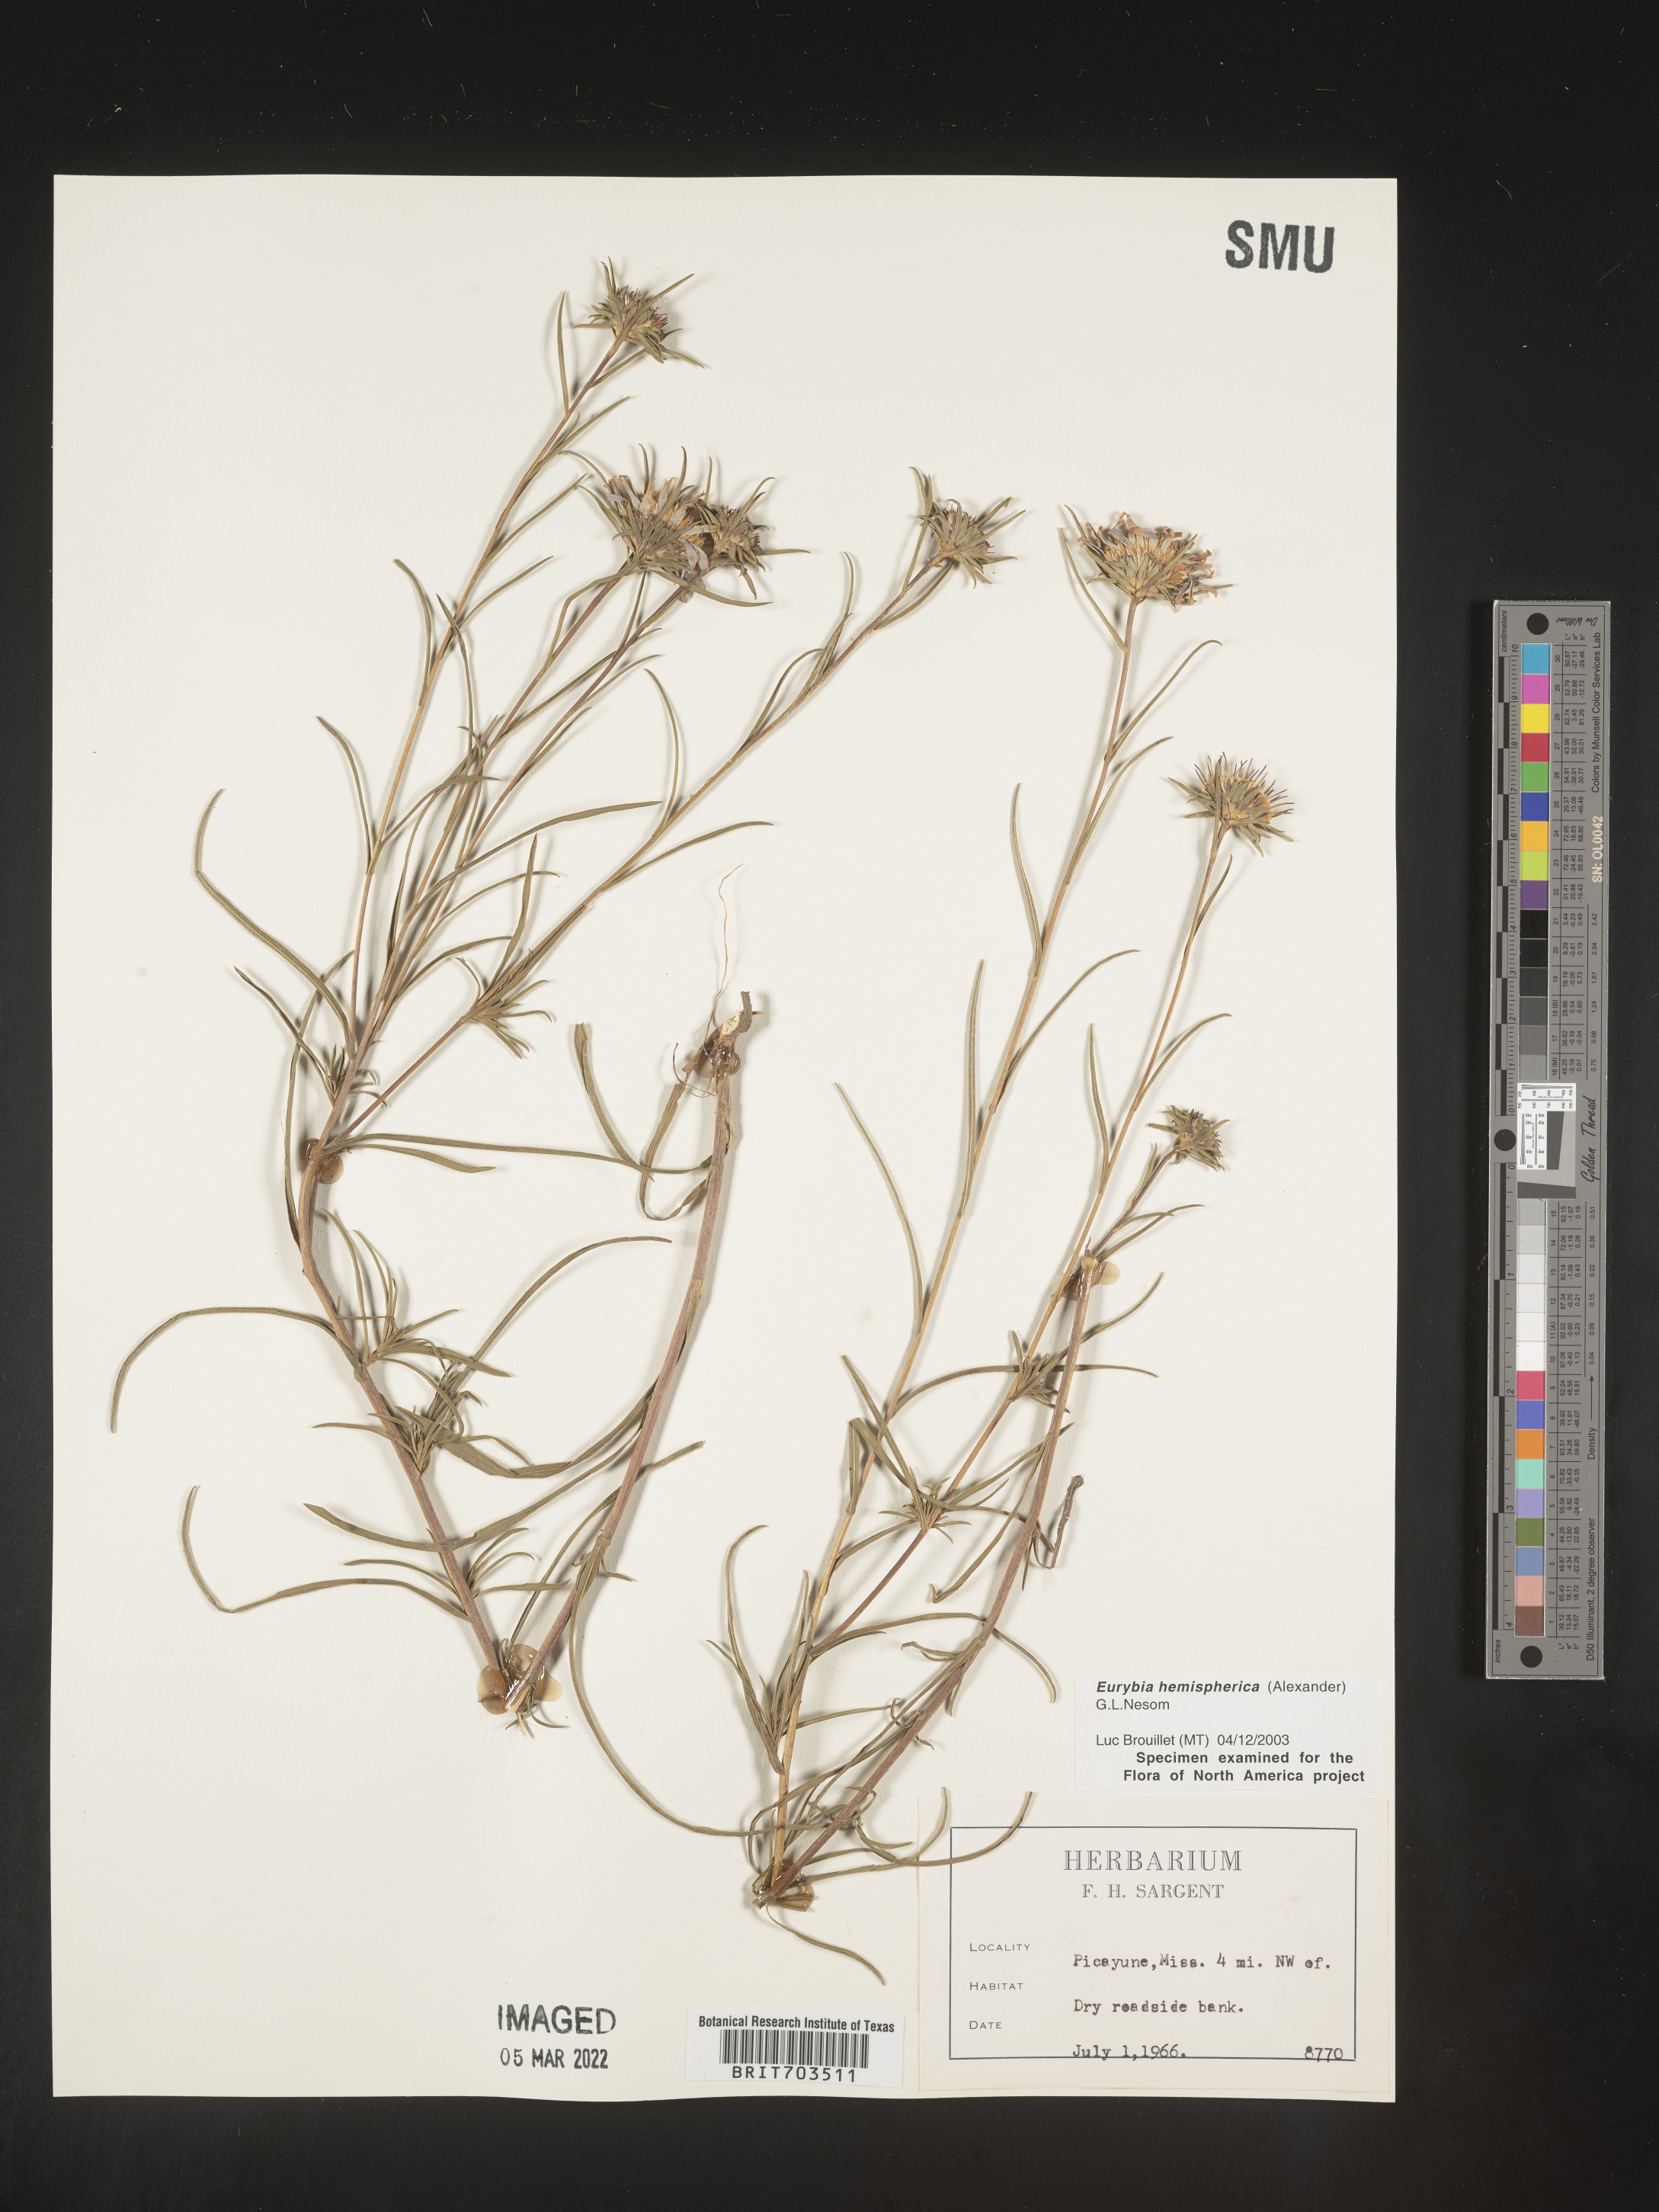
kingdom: Plantae
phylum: Tracheophyta
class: Magnoliopsida
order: Asterales
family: Asteraceae
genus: Eurybia
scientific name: Eurybia hemispherica
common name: Showy aster
